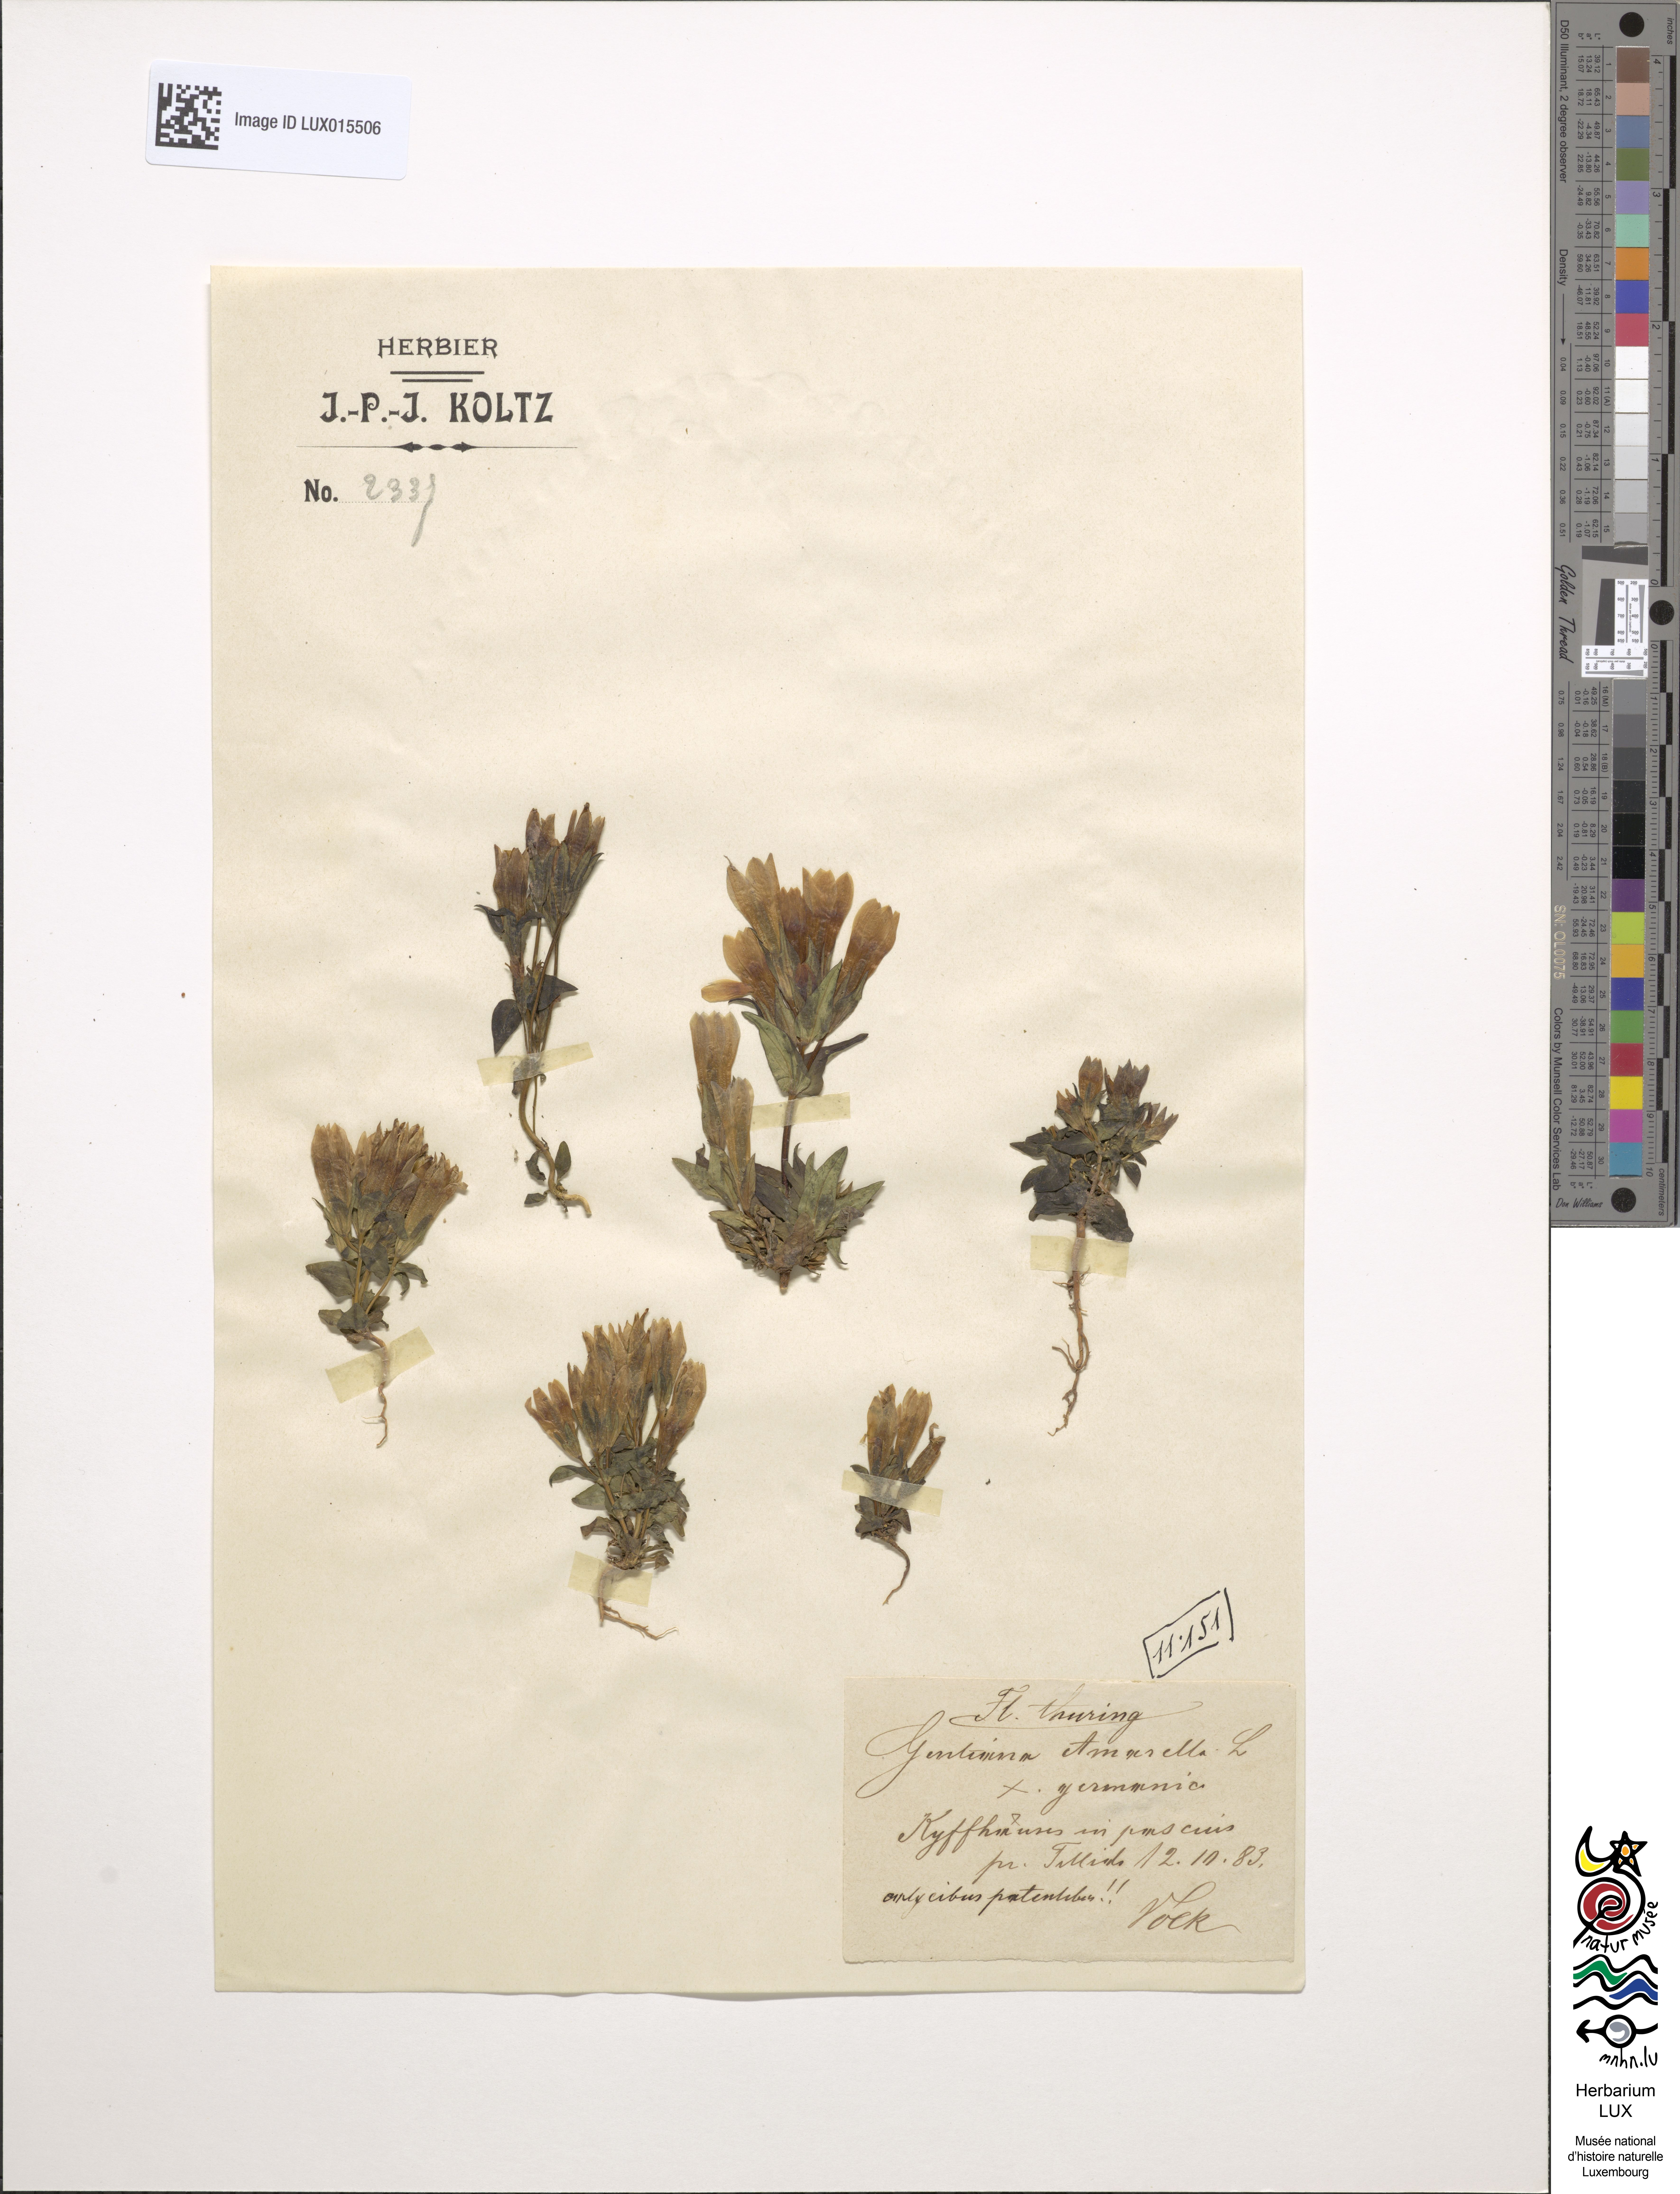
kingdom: Plantae
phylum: Tracheophyta
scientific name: Tracheophyta
